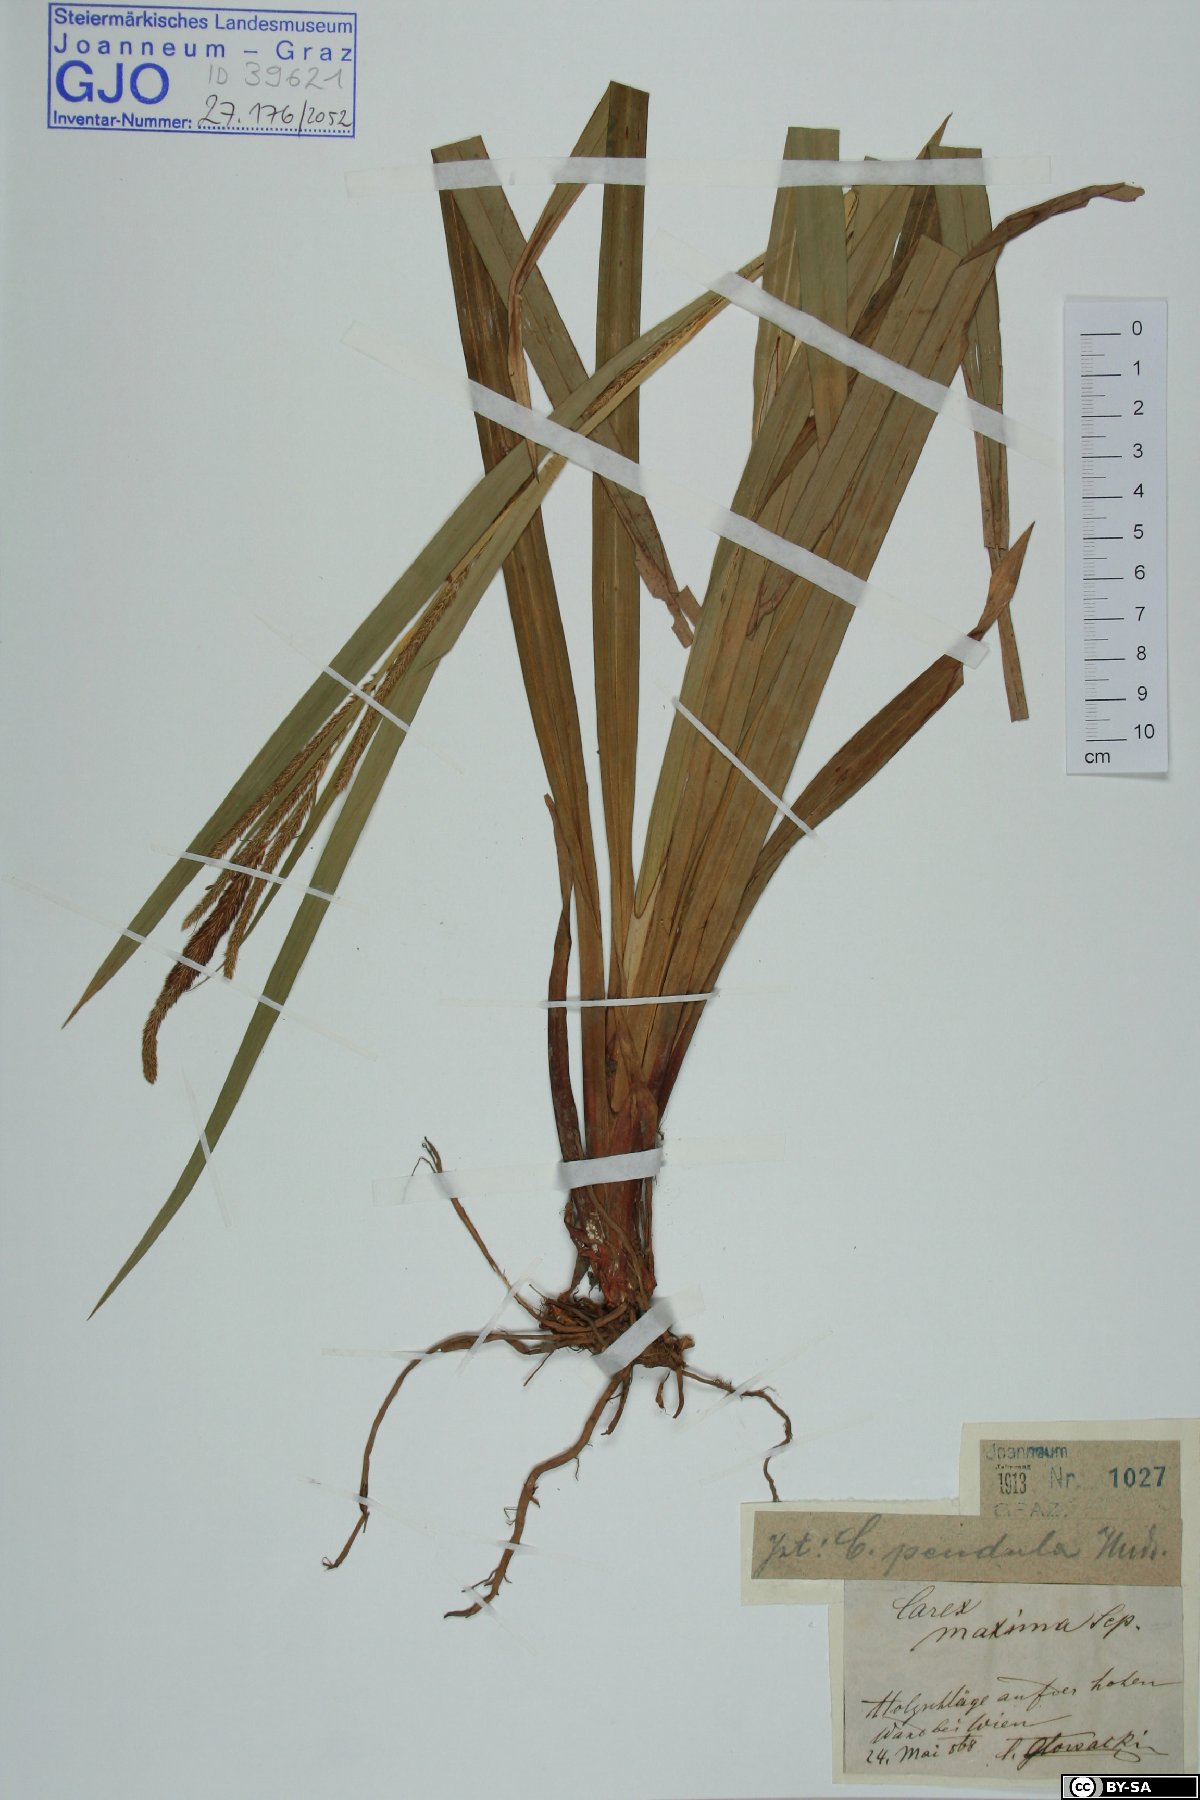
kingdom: Plantae
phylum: Tracheophyta
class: Liliopsida
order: Poales
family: Cyperaceae
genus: Carex
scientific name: Carex pendula
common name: Pendulous sedge
